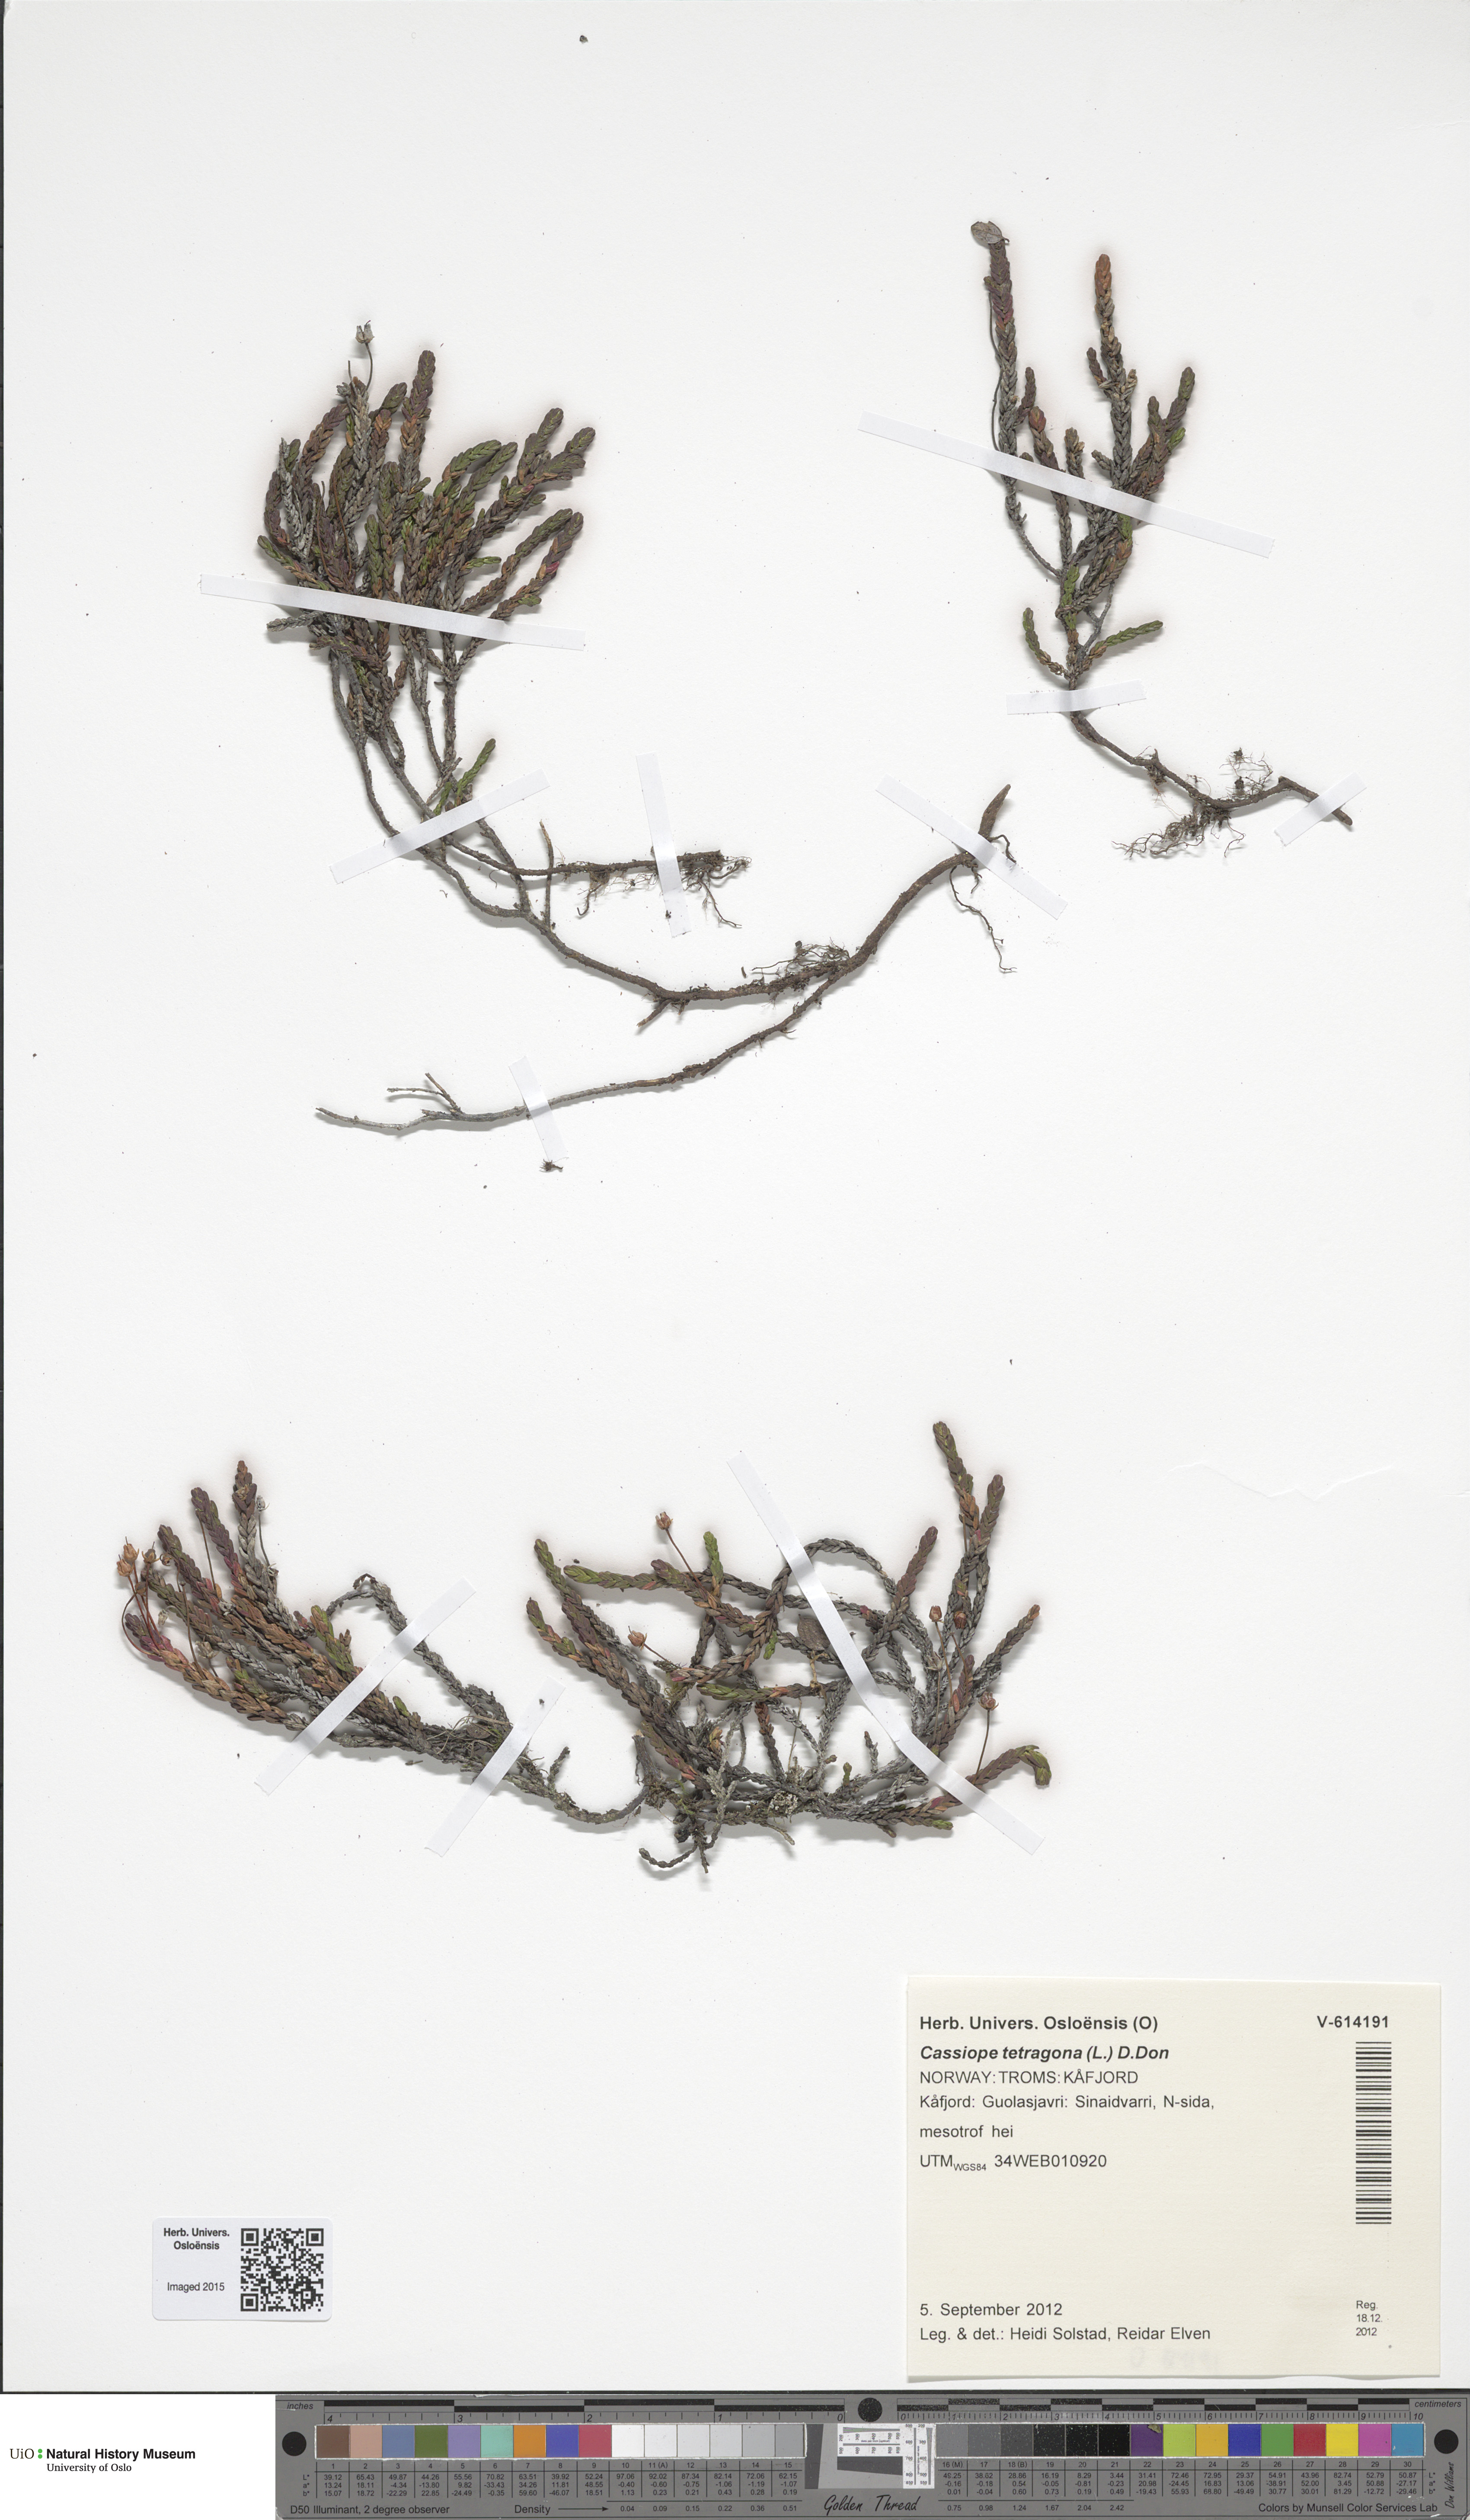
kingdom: Plantae
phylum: Tracheophyta
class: Magnoliopsida
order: Ericales
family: Ericaceae
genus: Cassiope
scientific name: Cassiope tetragona
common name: Arctic bell heather
